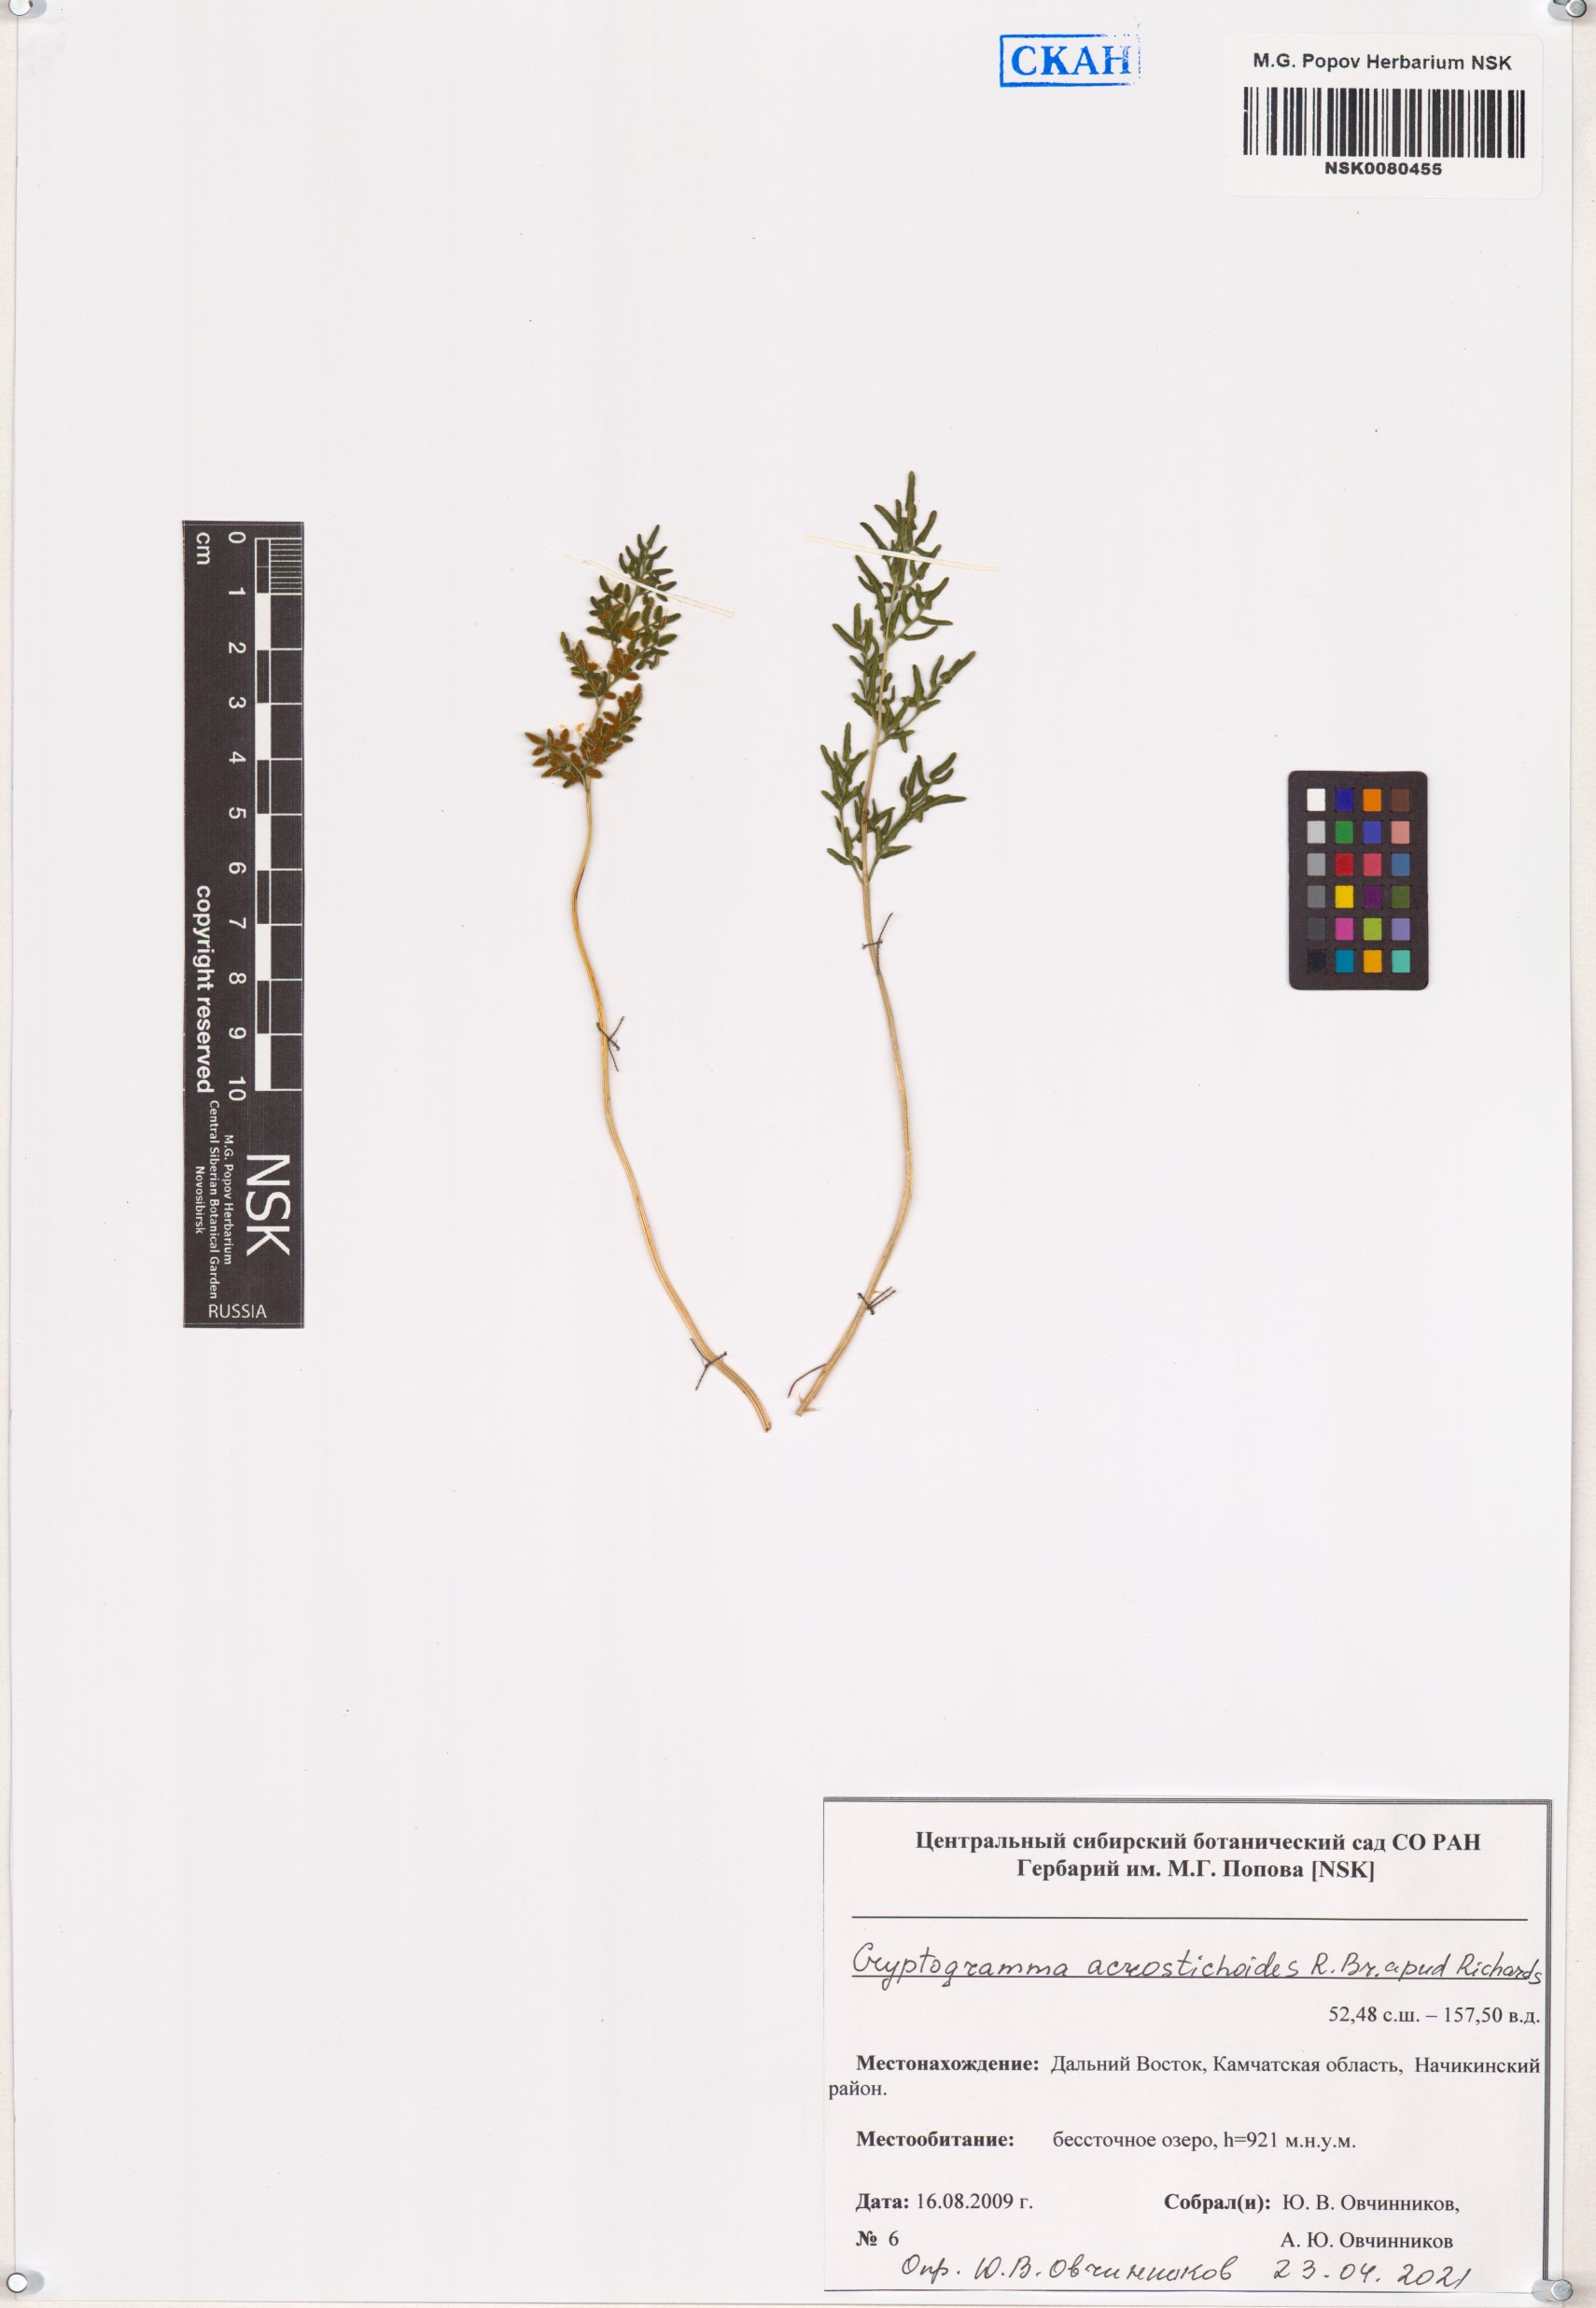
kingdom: Plantae
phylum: Tracheophyta
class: Polypodiopsida
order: Polypodiales
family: Pteridaceae
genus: Cryptogramma
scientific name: Cryptogramma acrostichoides
